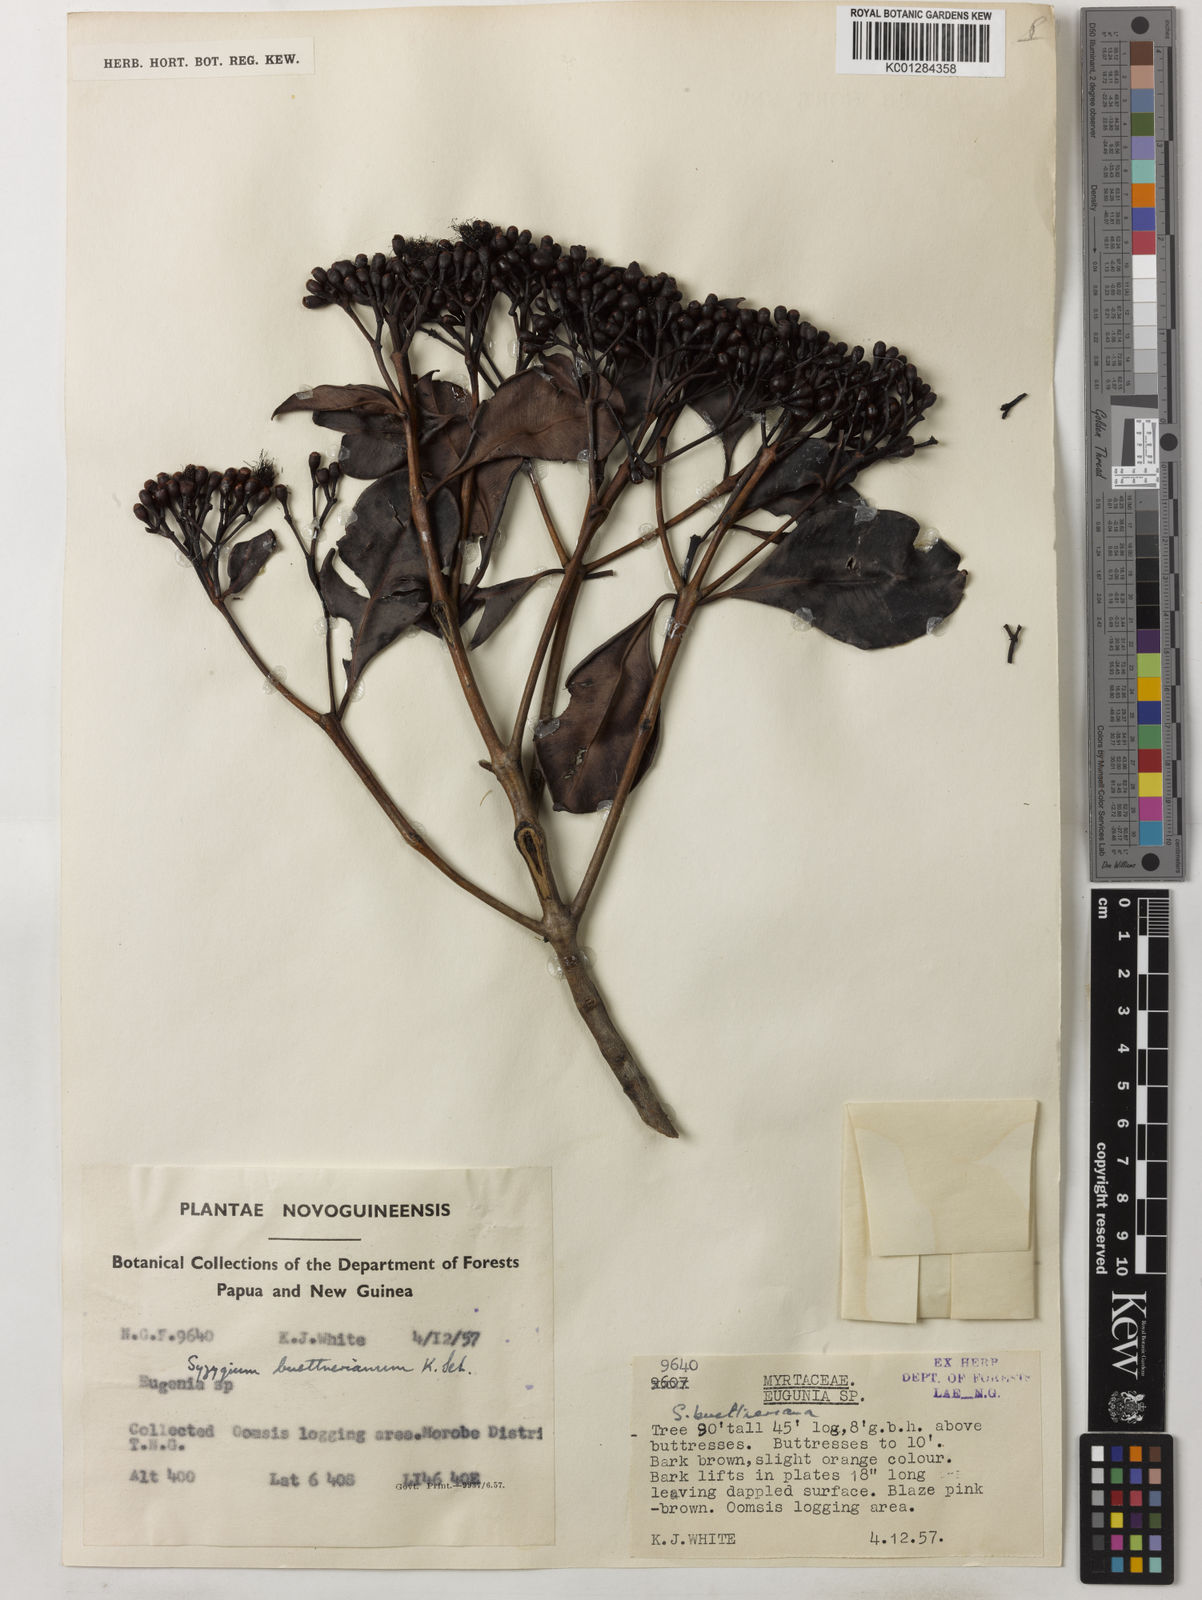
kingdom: Plantae
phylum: Tracheophyta
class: Magnoliopsida
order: Myrtales
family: Myrtaceae
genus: Syzygium
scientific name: Syzygium buettnerianum
